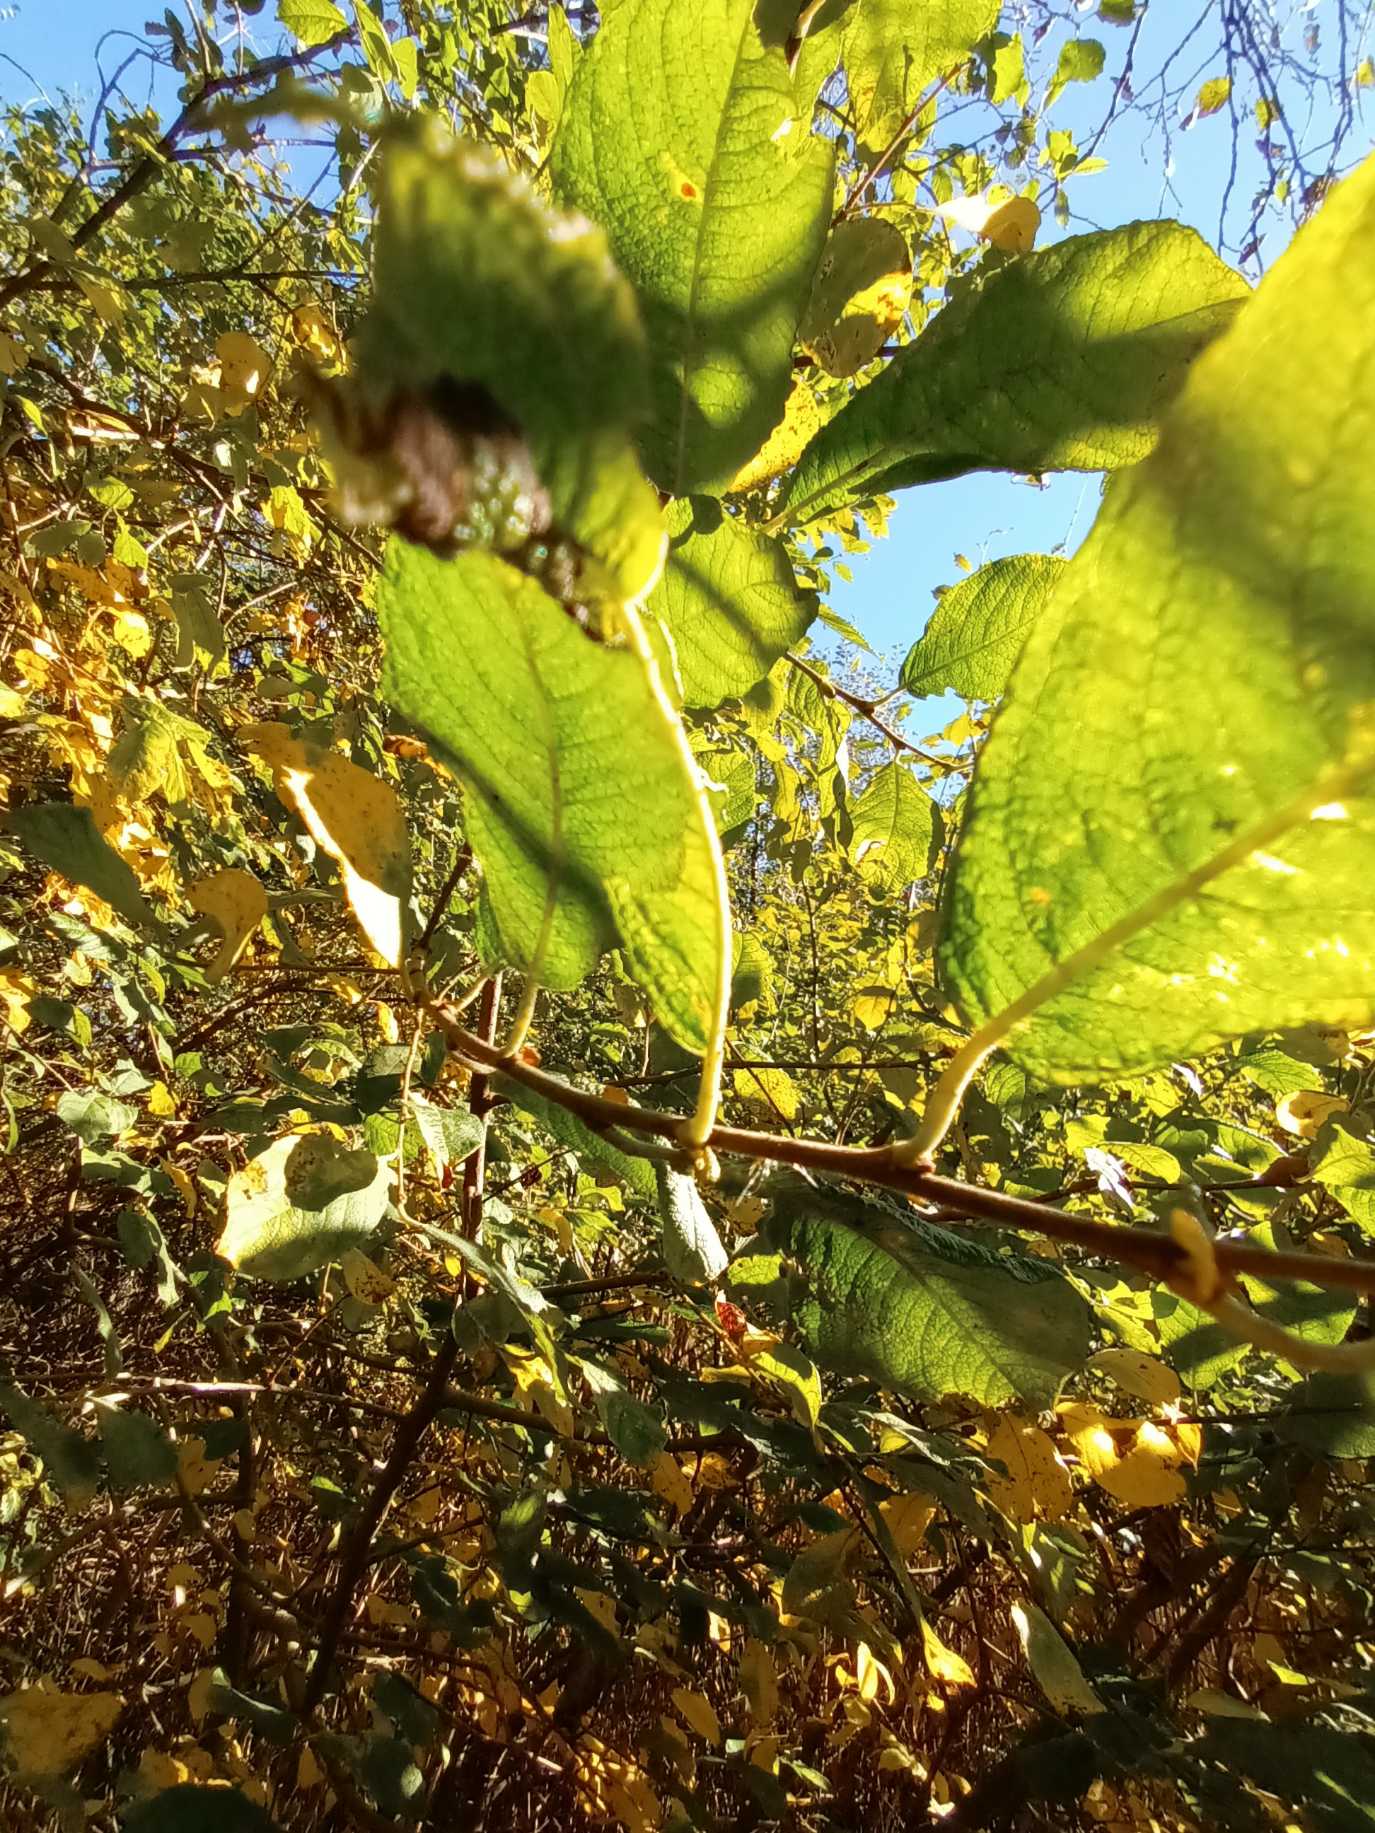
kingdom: Plantae
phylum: Tracheophyta
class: Magnoliopsida
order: Malpighiales
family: Salicaceae
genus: Salix
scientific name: Salix aurita
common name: Øret pil
